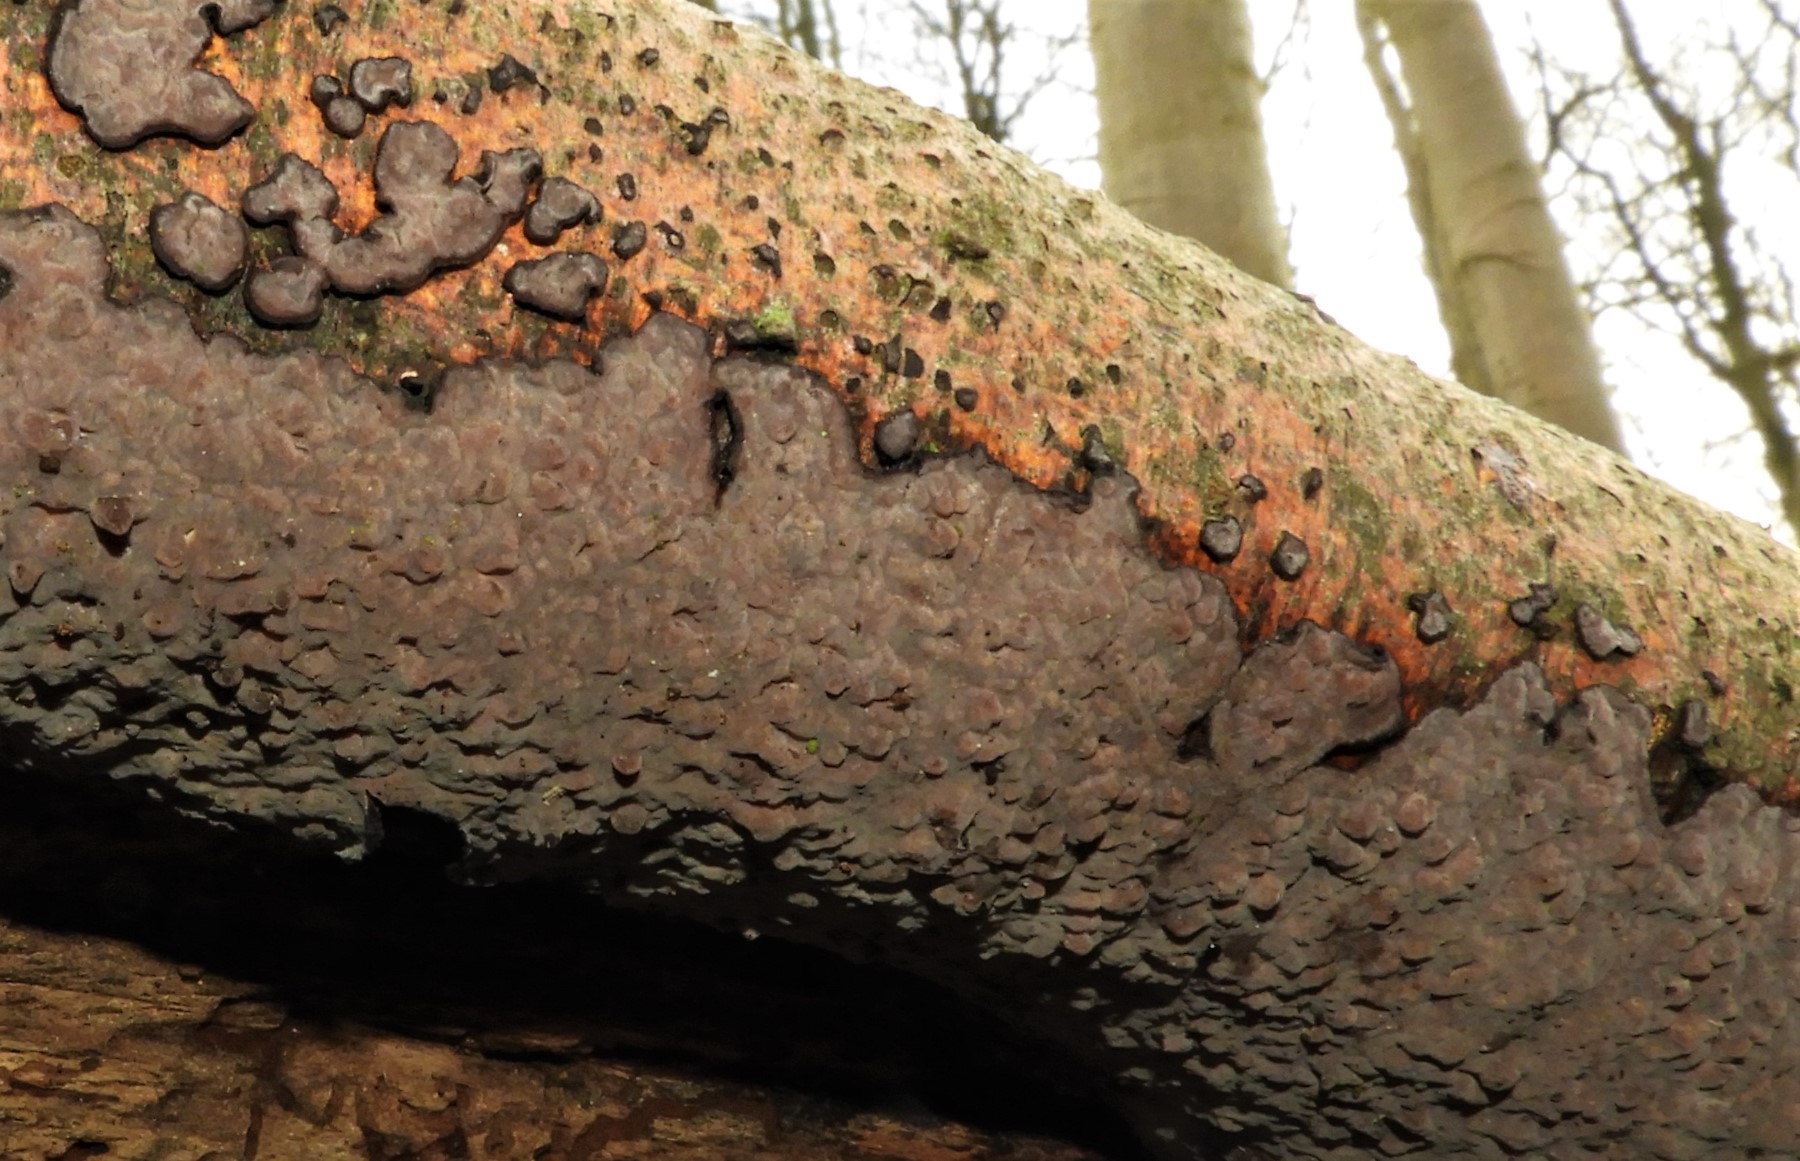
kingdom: Fungi
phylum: Basidiomycota
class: Agaricomycetes
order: Russulales
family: Peniophoraceae
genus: Peniophora
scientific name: Peniophora quercina
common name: ege-voksskind
